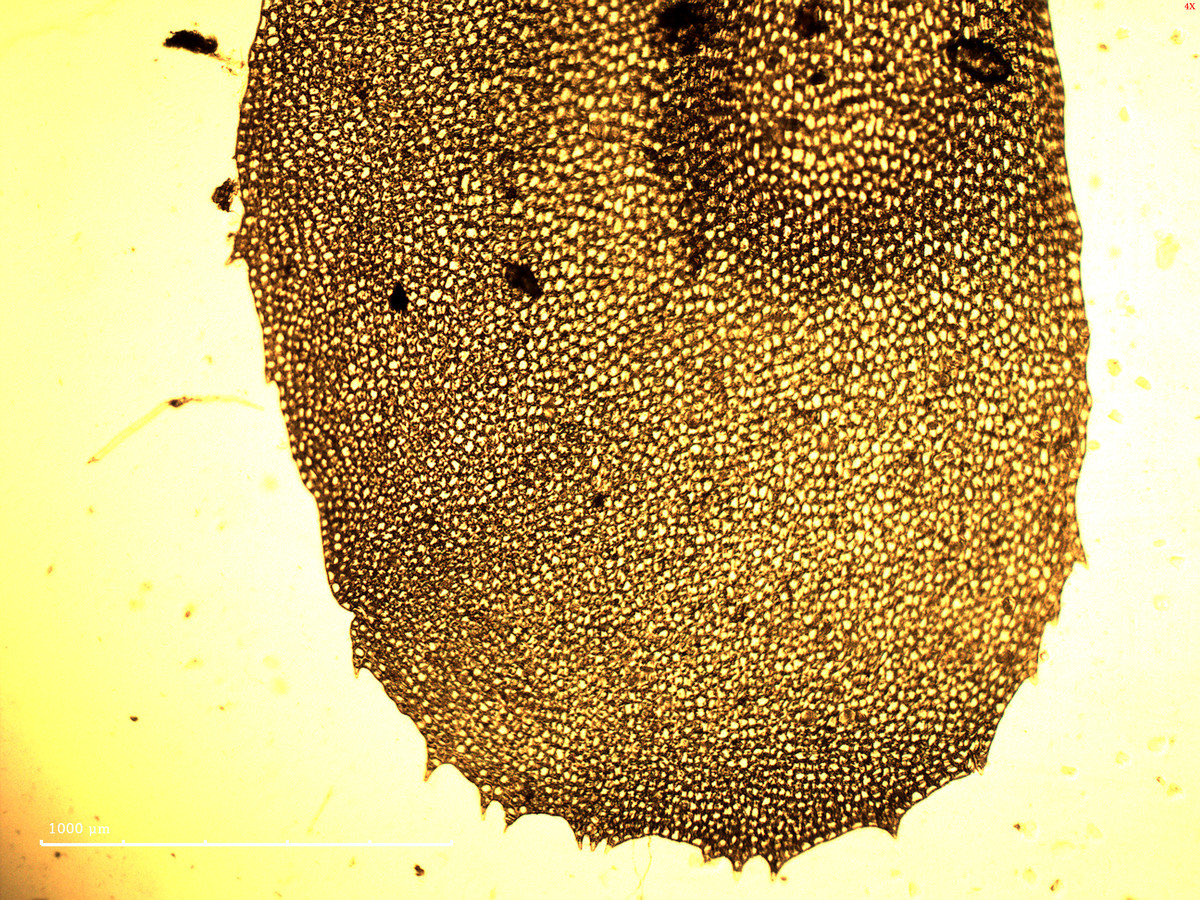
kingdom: Plantae
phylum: Marchantiophyta
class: Jungermanniopsida
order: Jungermanniales
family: Plagiochilaceae
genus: Plagiochila
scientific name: Plagiochila integerrima
